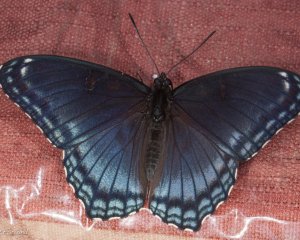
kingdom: Animalia
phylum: Arthropoda
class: Insecta
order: Lepidoptera
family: Nymphalidae
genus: Limenitis
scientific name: Limenitis astyanax
